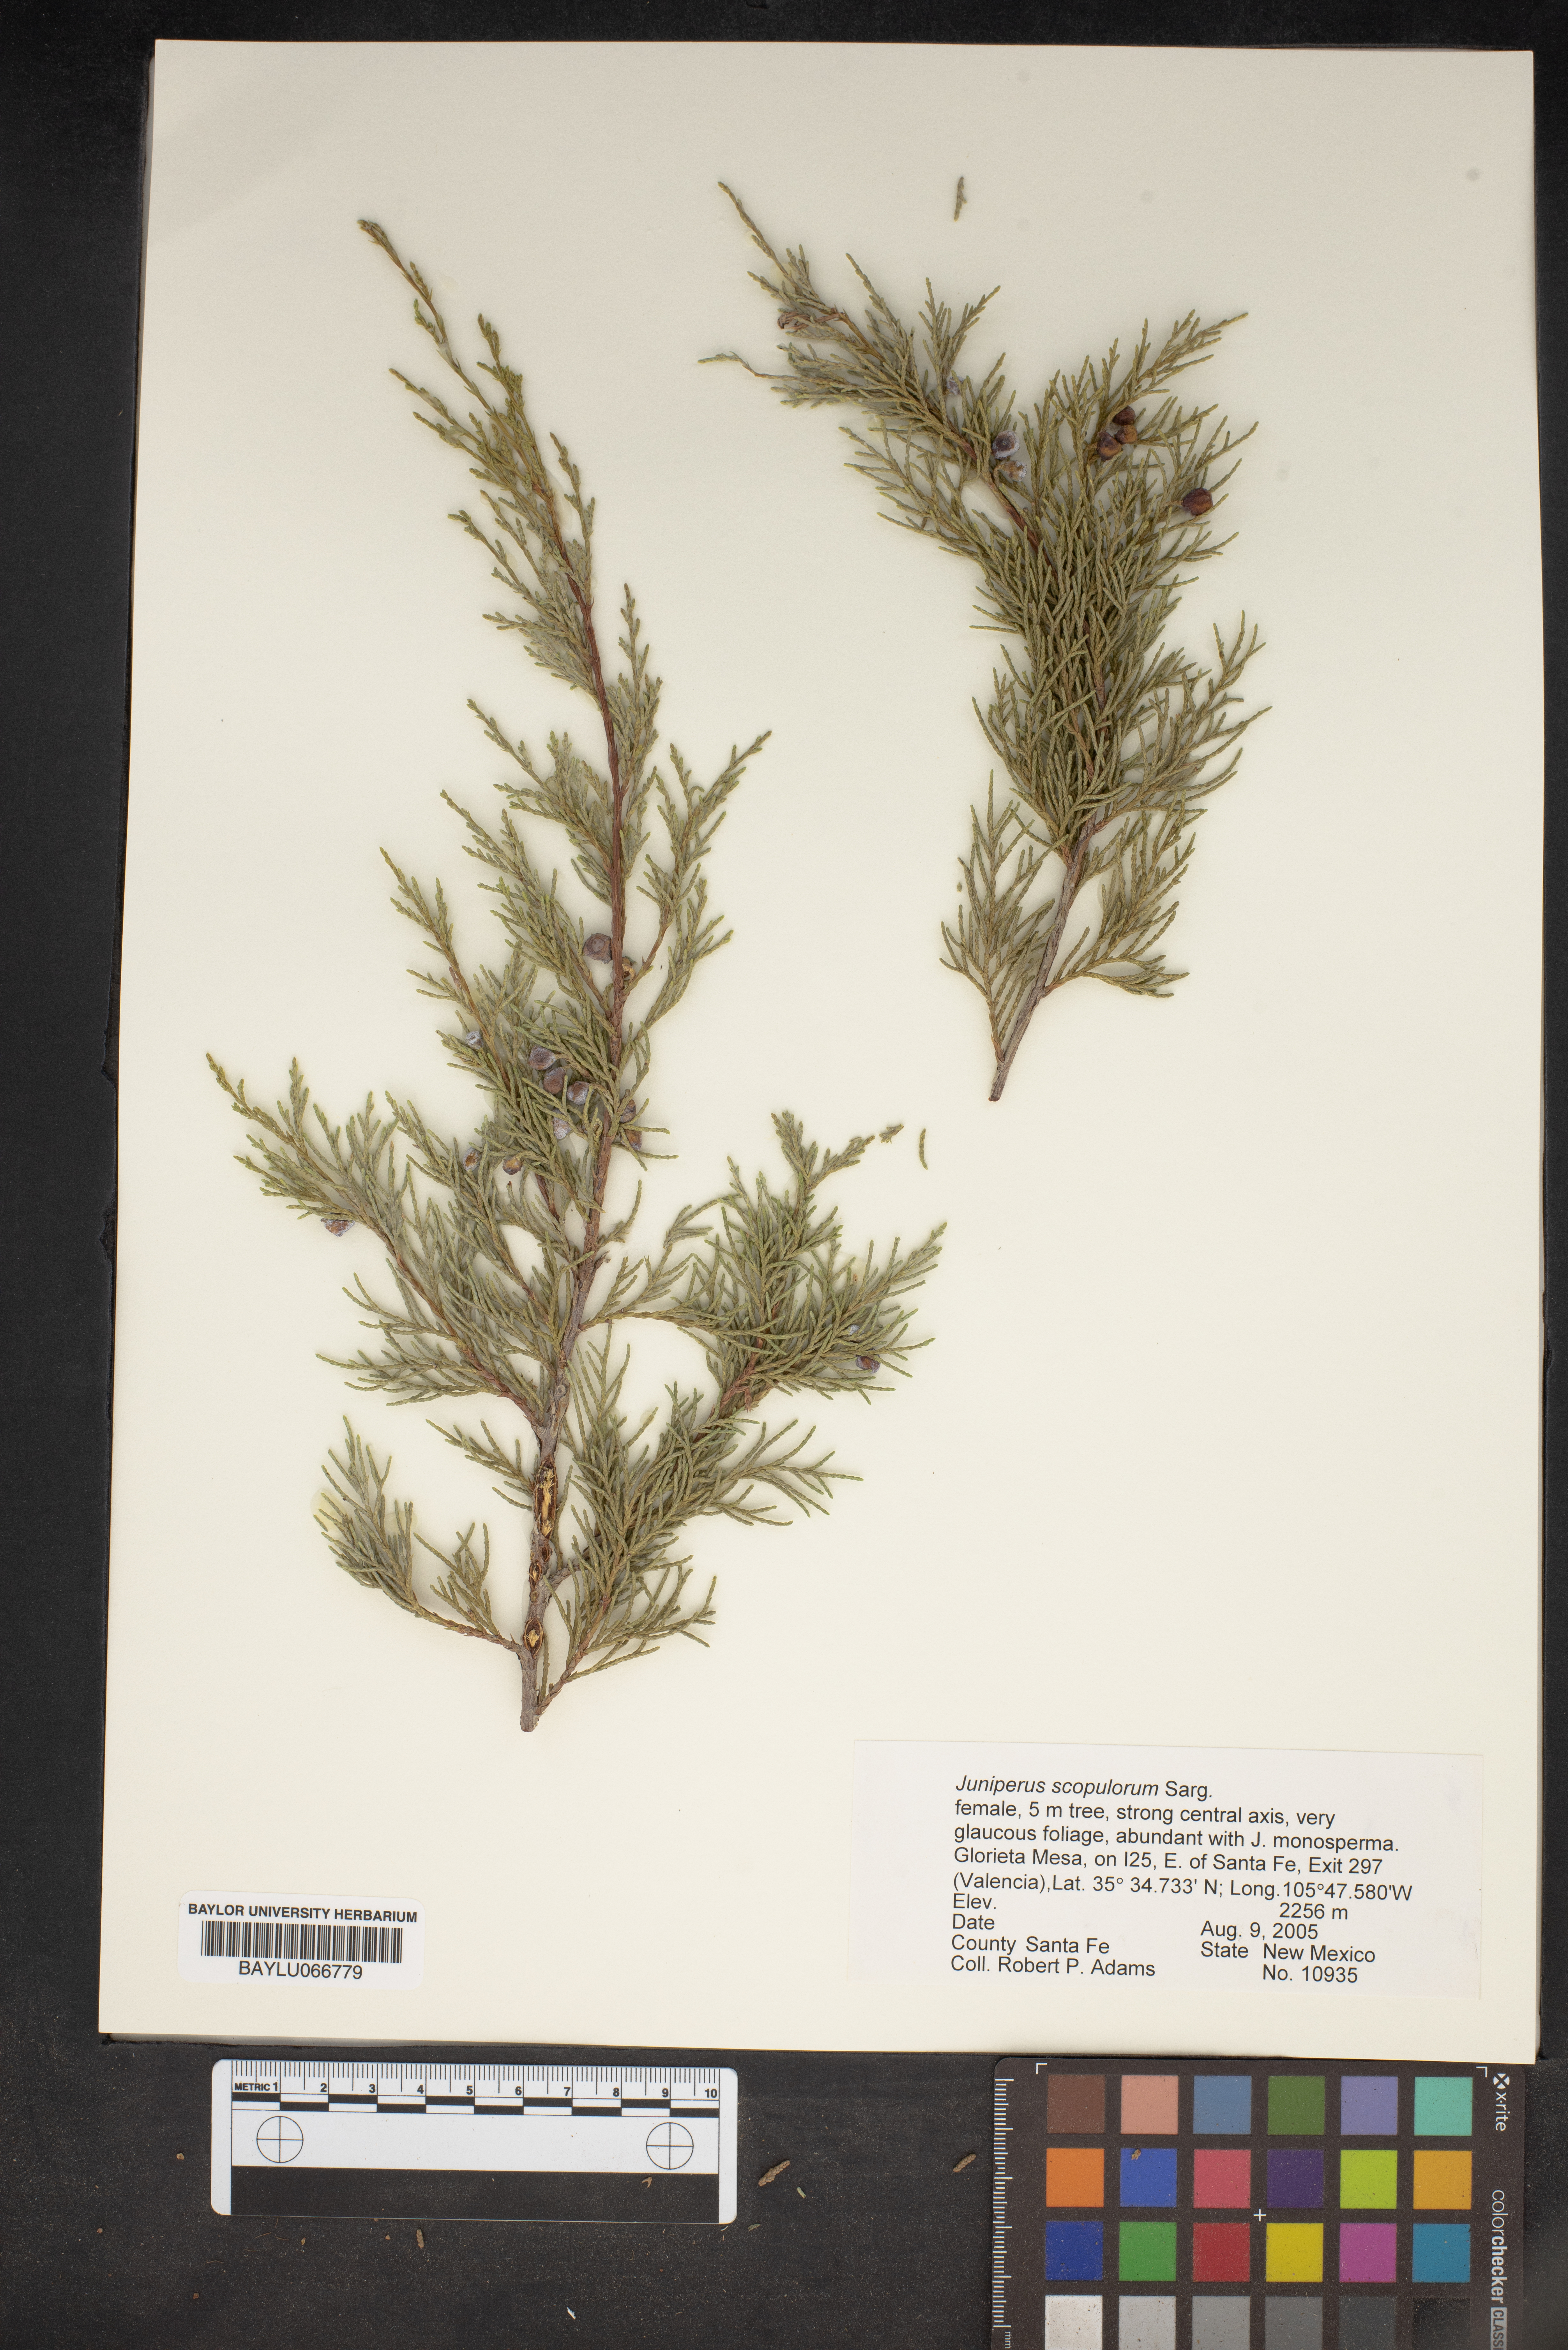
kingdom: Plantae
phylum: Tracheophyta
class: Pinopsida
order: Pinales
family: Cupressaceae
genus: Juniperus
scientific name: Juniperus scopulorum
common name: Rocky mountain juniper
